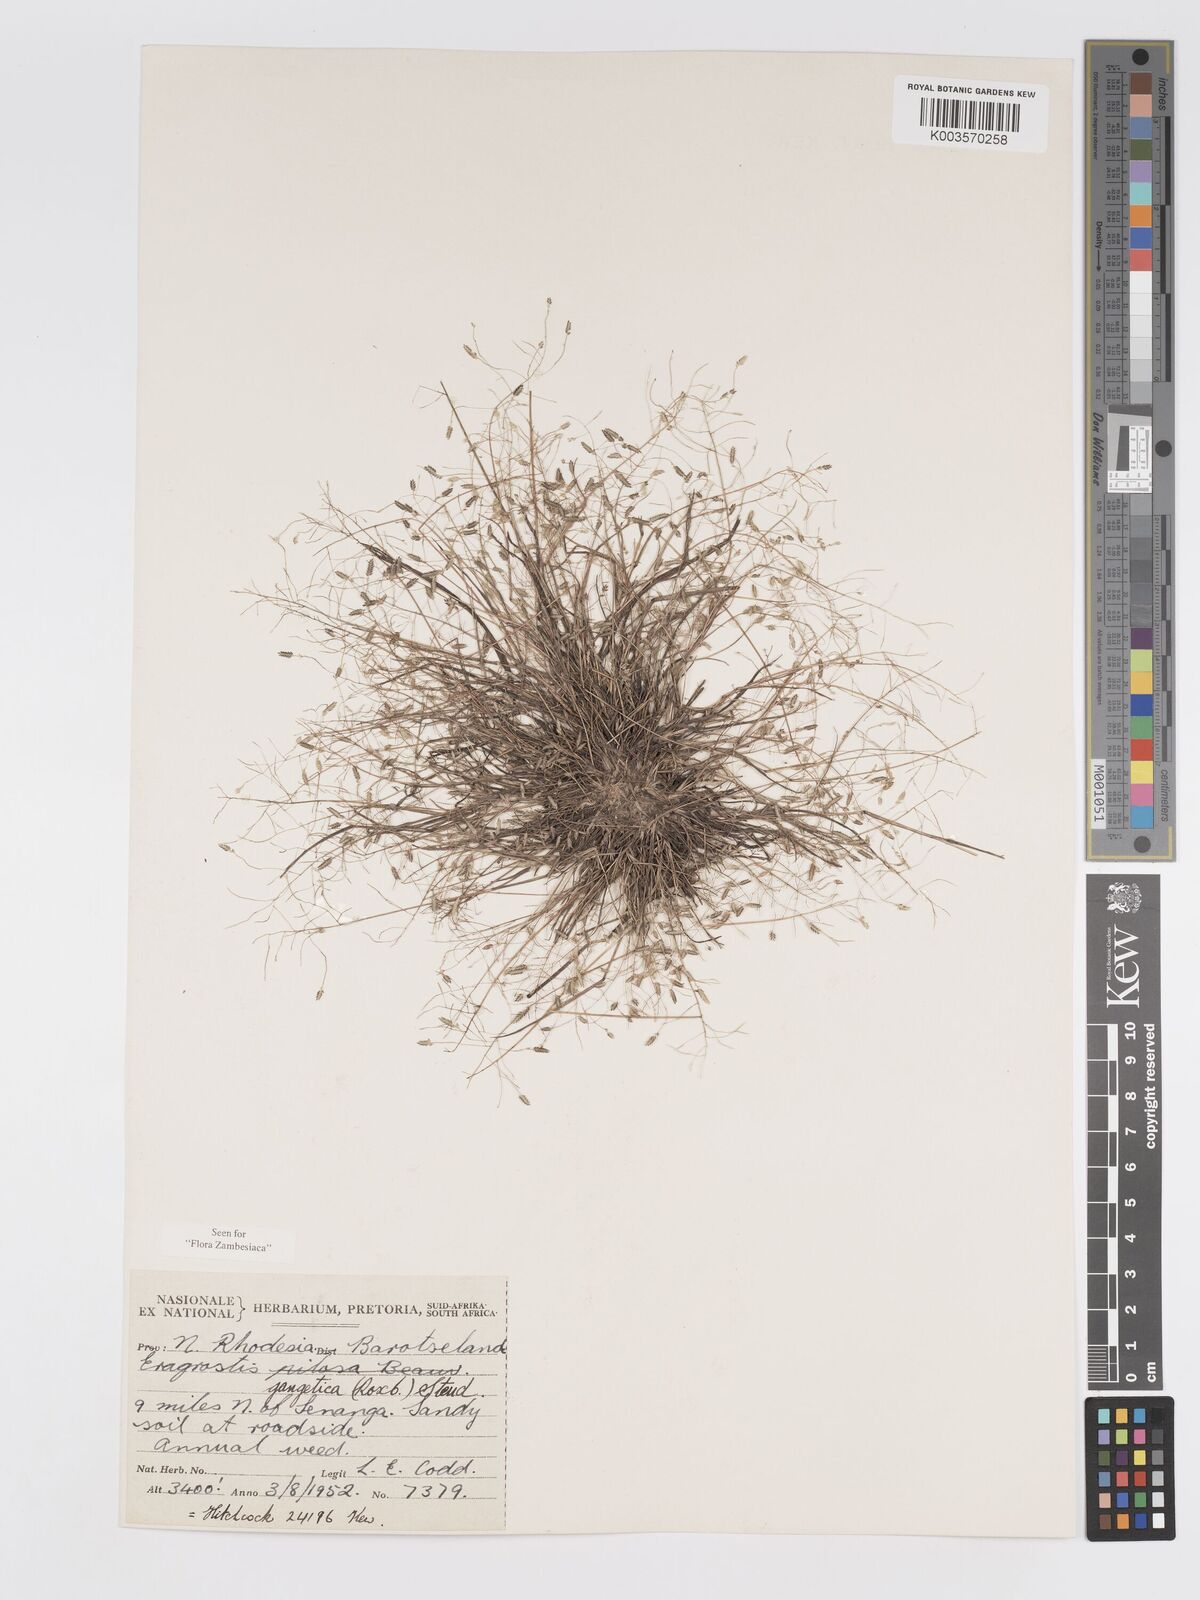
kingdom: Plantae
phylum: Tracheophyta
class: Liliopsida
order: Poales
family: Poaceae
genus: Eragrostis
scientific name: Eragrostis gangetica
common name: Slimflower lovegrass
